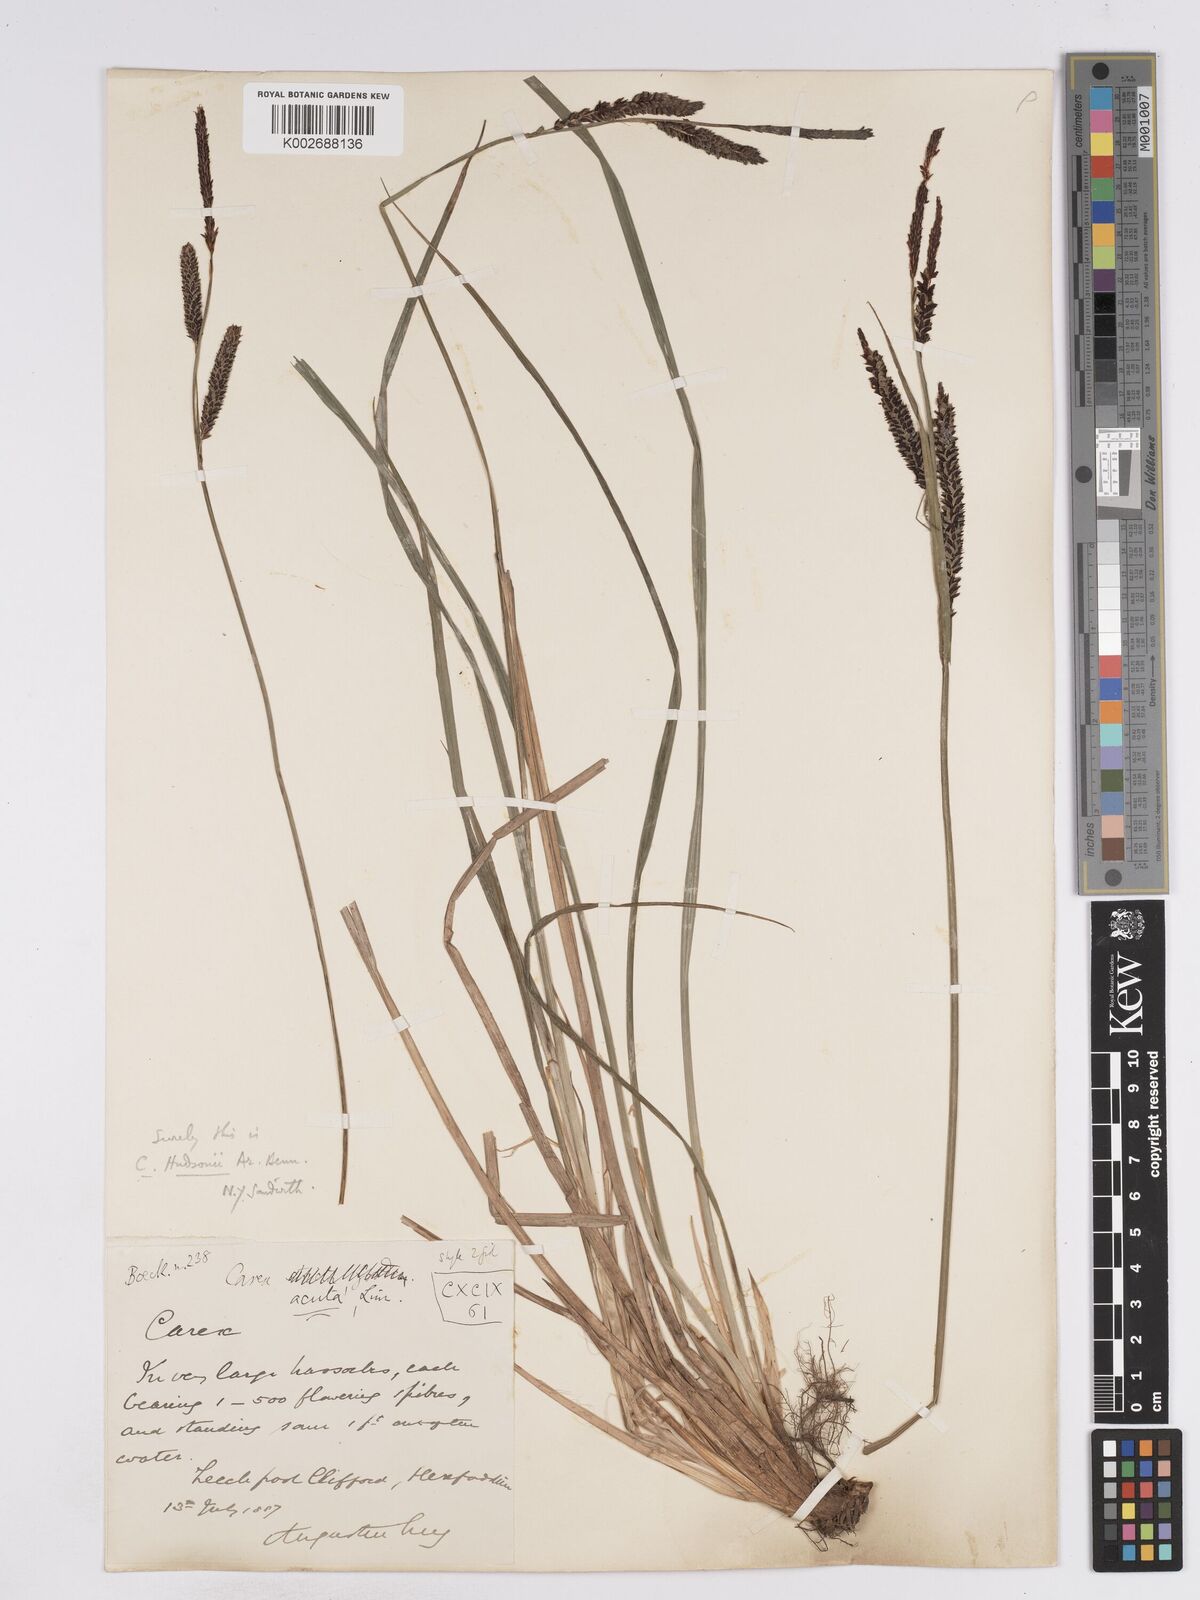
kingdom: Plantae
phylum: Tracheophyta
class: Liliopsida
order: Poales
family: Cyperaceae
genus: Carex
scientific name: Carex elata
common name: Tufted sedge
